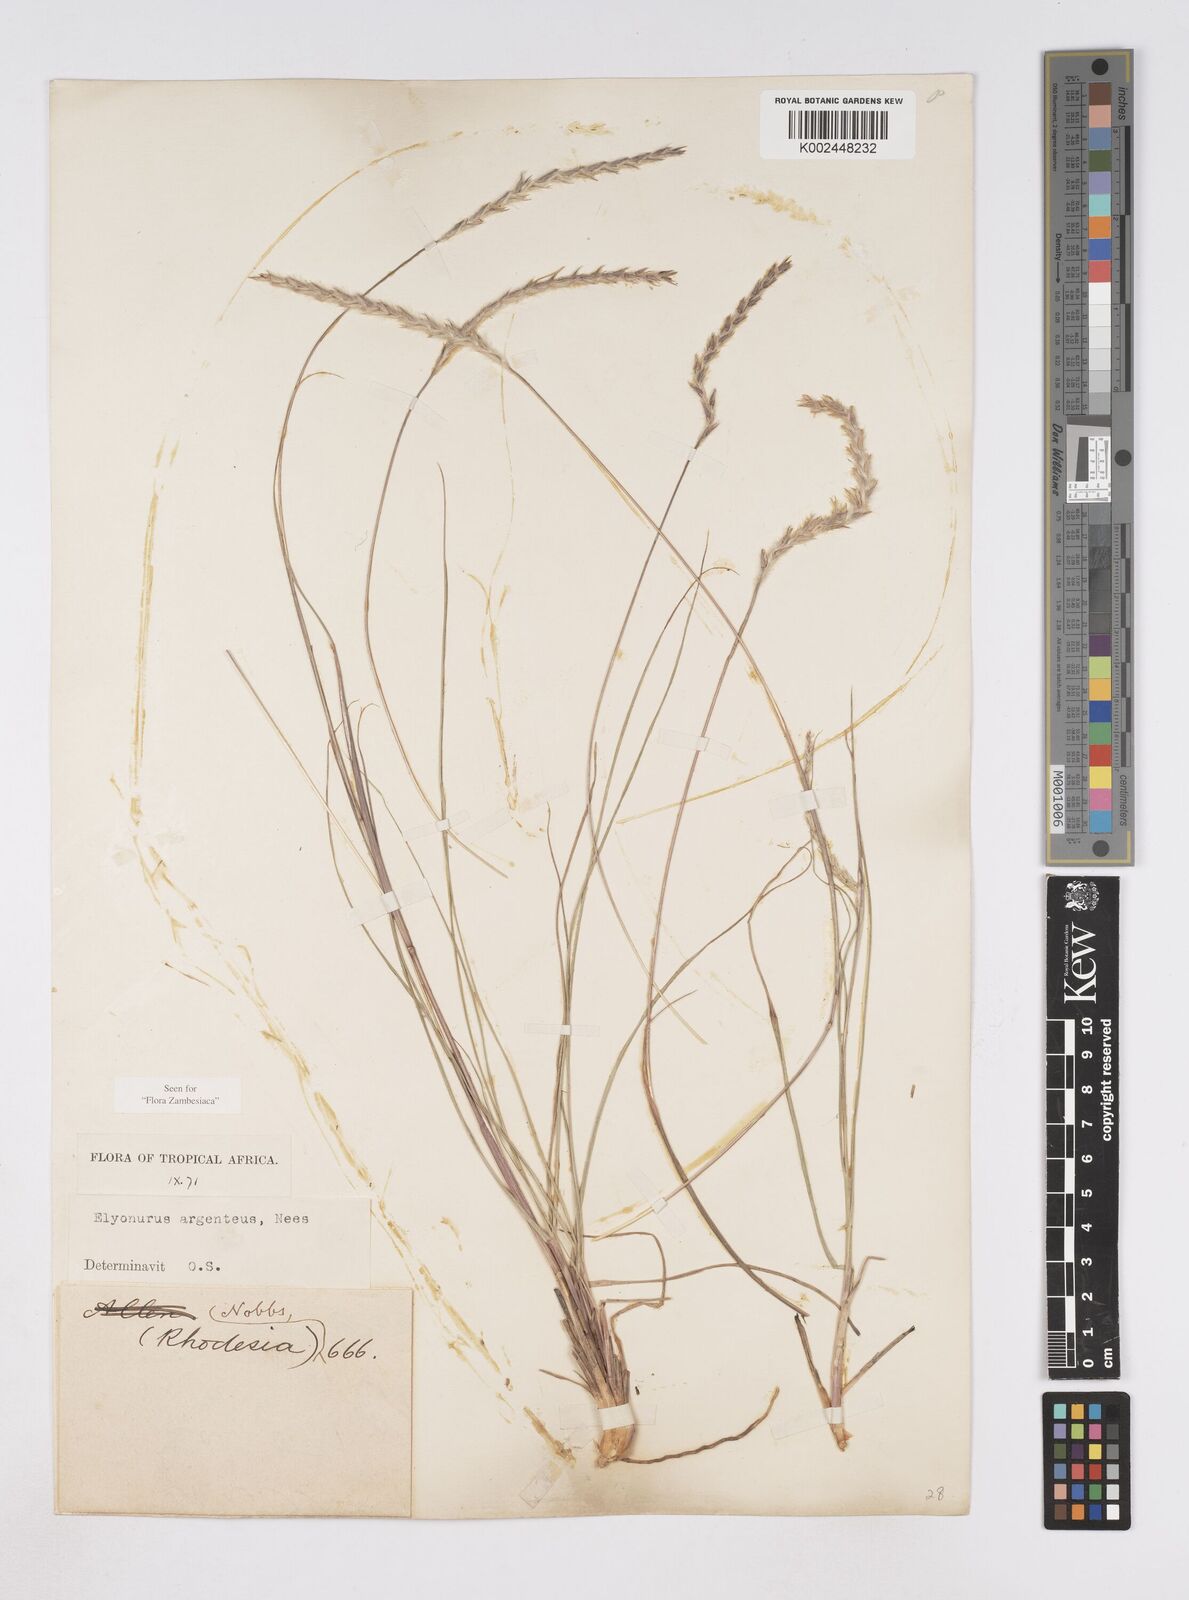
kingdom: Plantae
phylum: Tracheophyta
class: Liliopsida
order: Poales
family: Poaceae
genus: Elionurus
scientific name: Elionurus muticus
